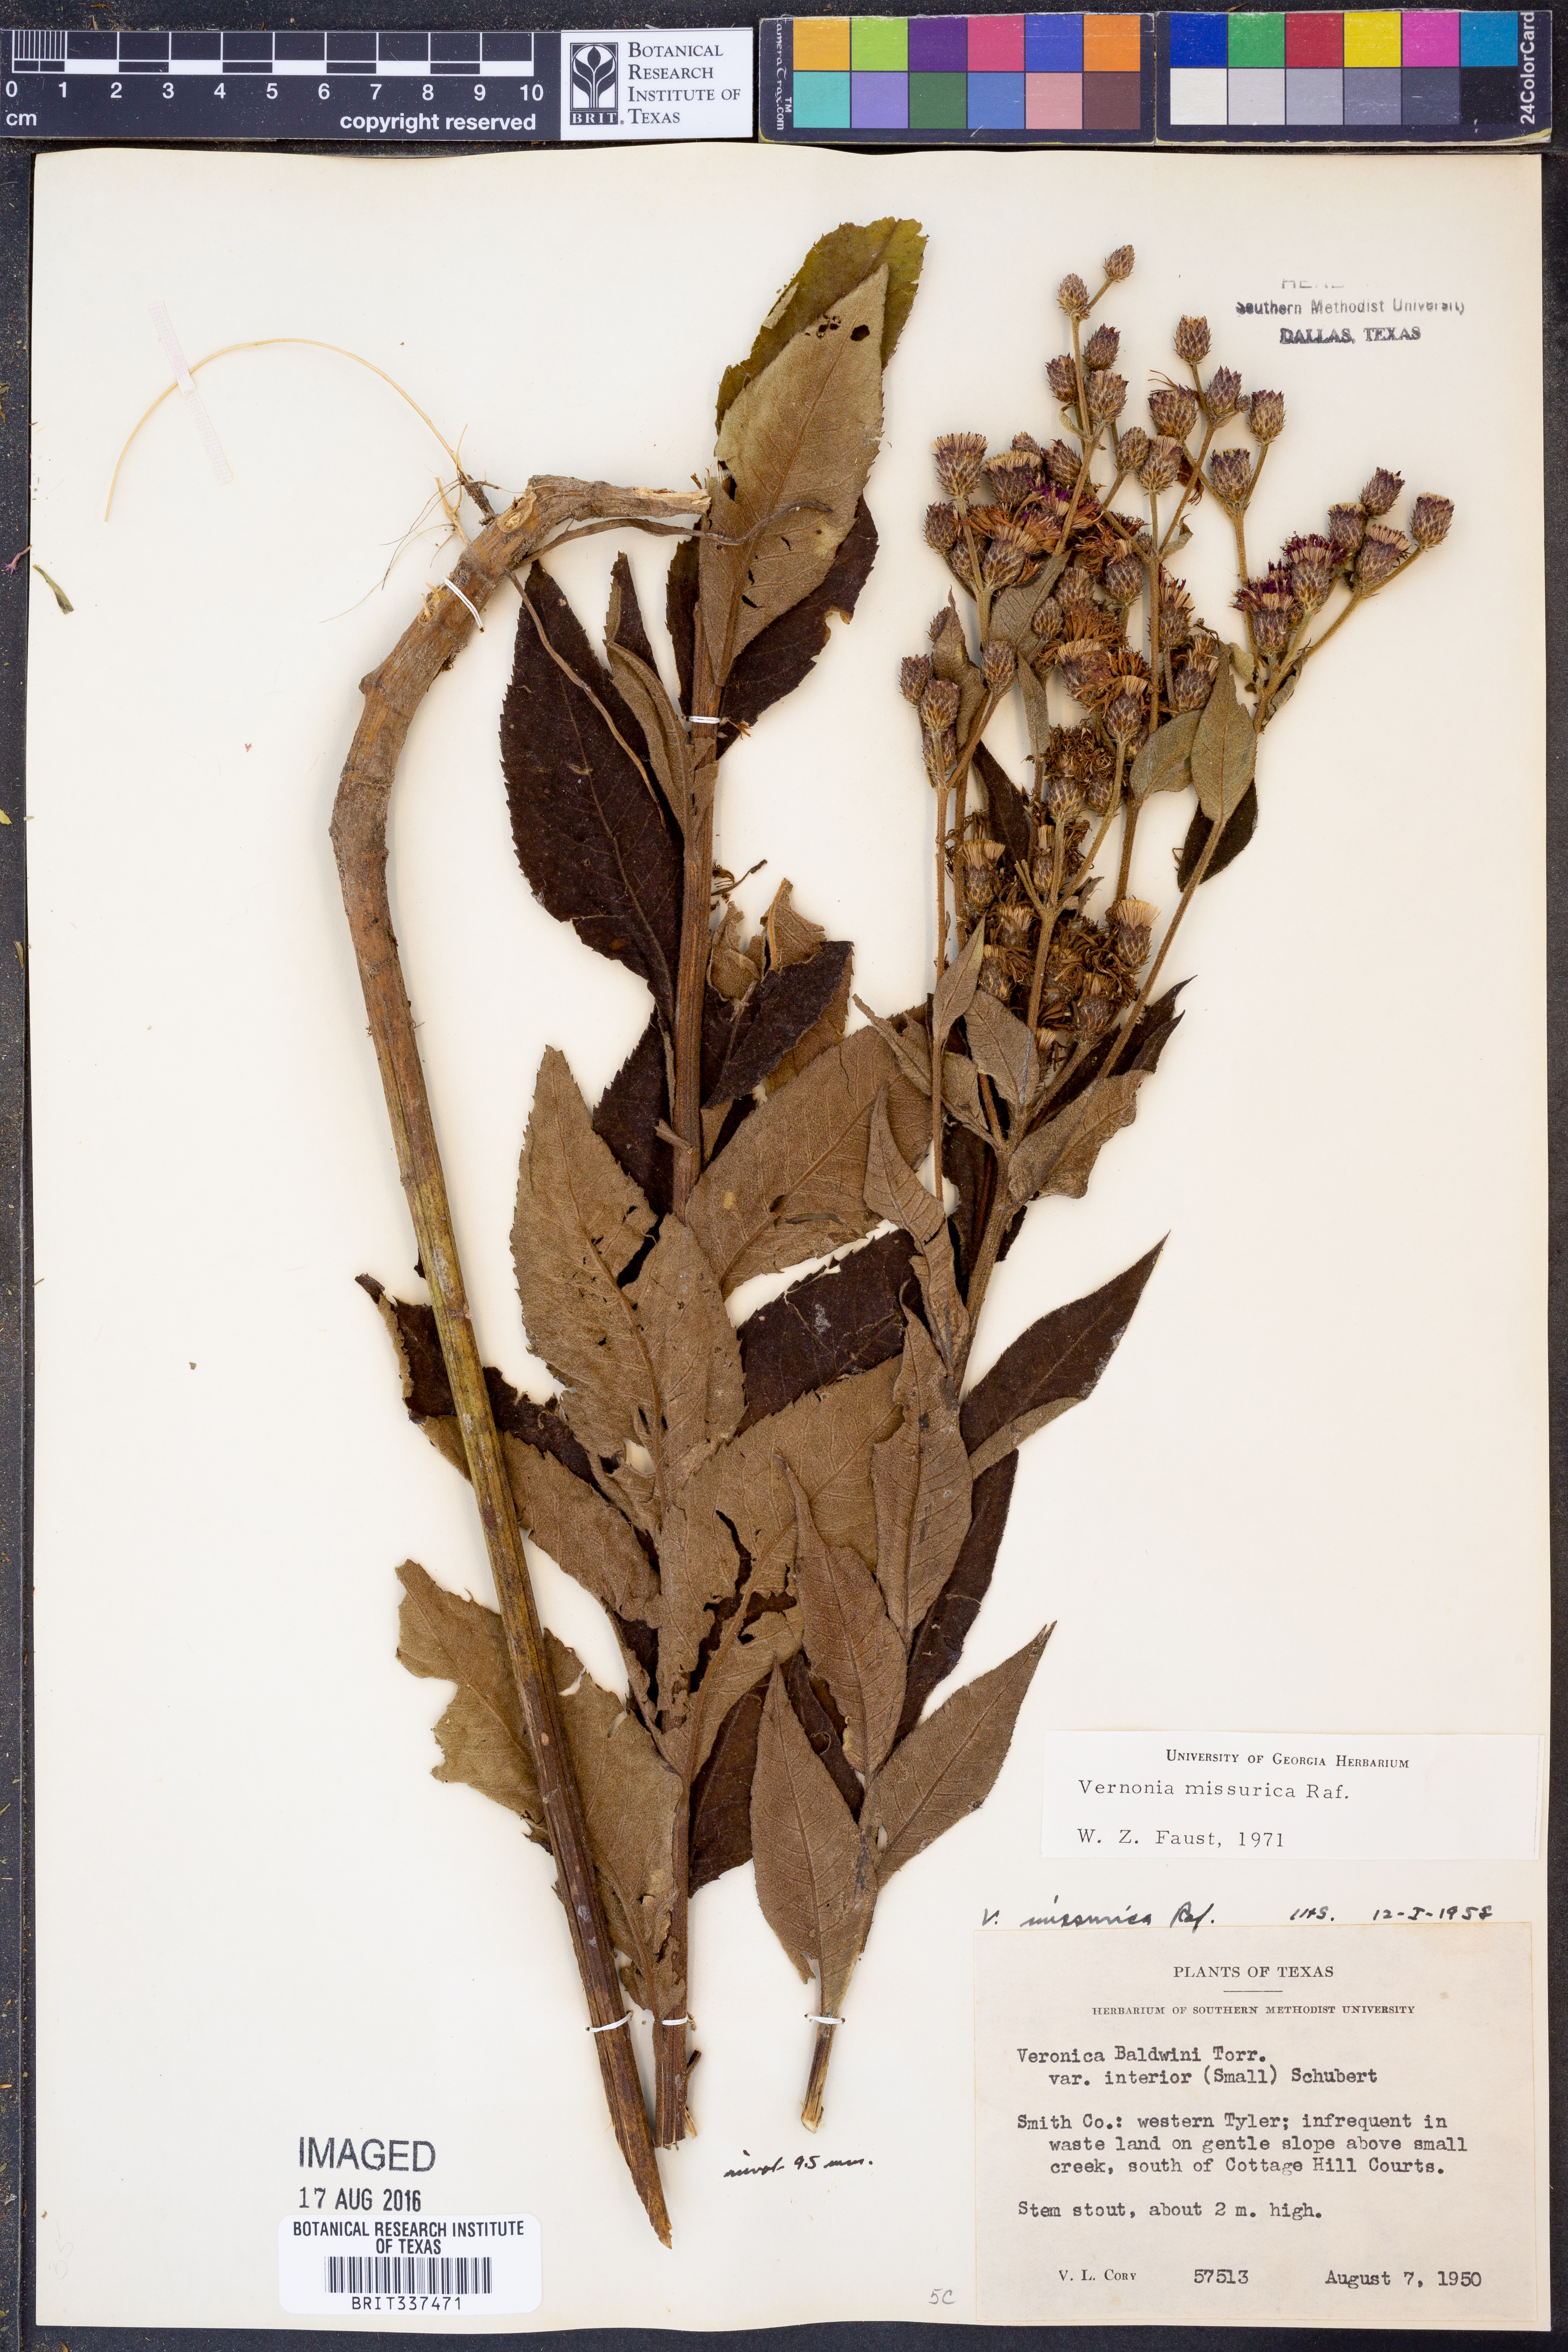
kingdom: Plantae
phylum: Tracheophyta
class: Magnoliopsida
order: Asterales
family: Asteraceae
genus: Vernonia
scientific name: Vernonia missurica
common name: Missouri ironweed
